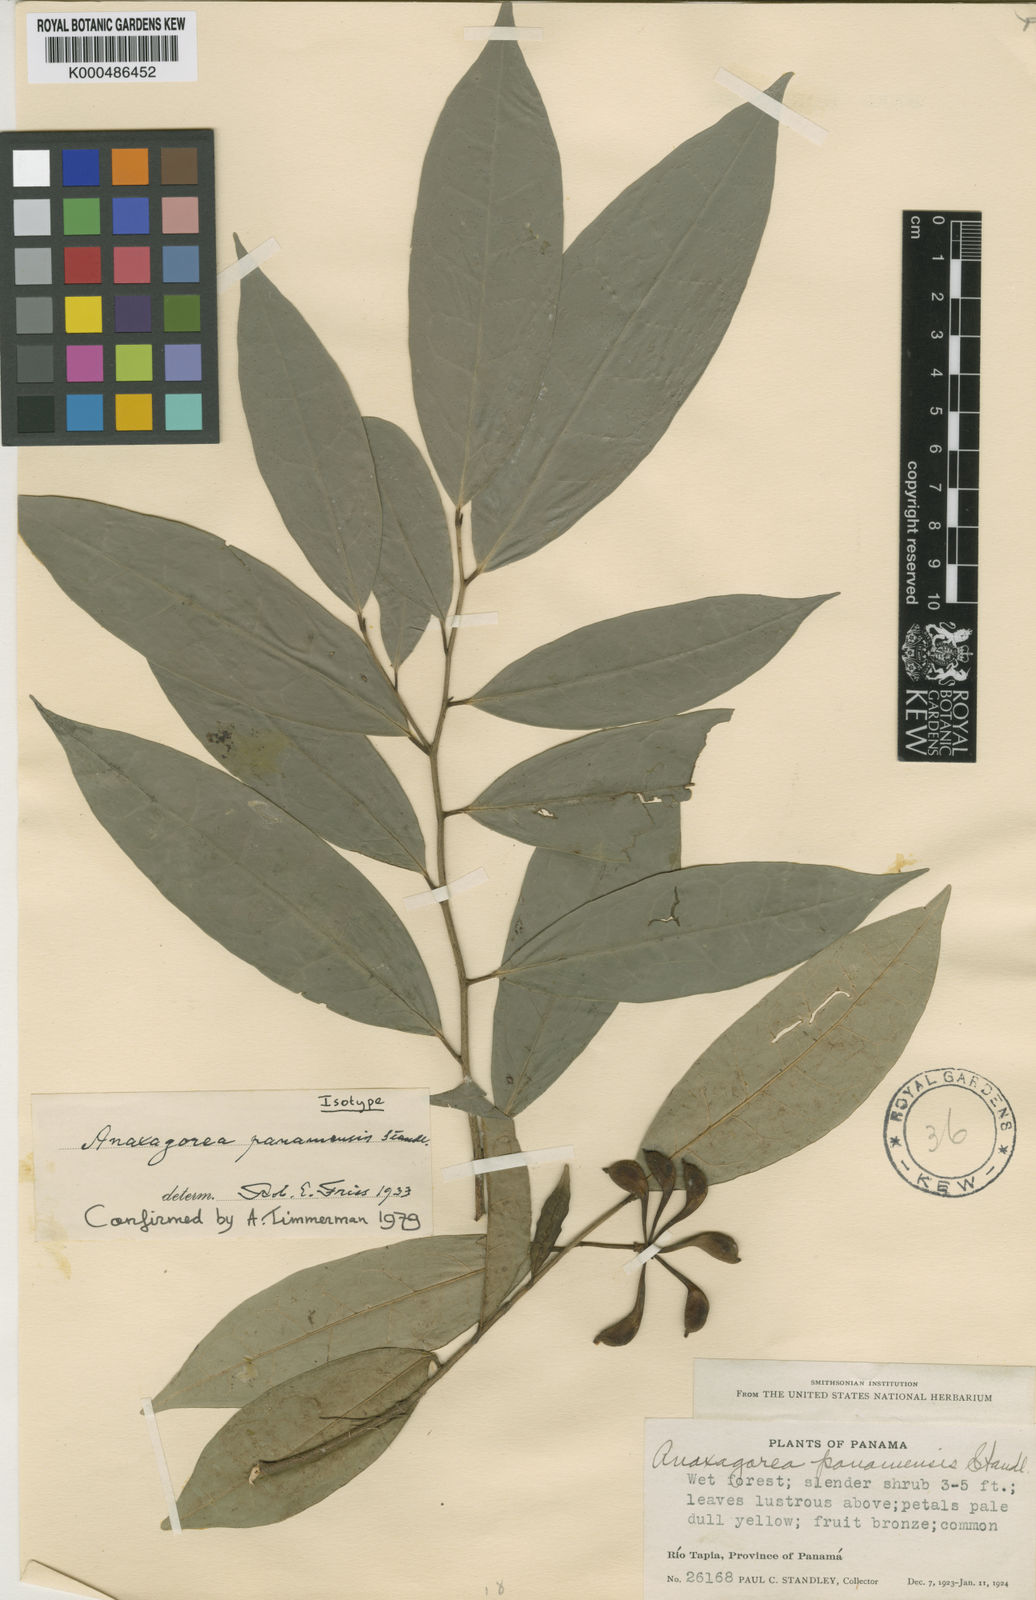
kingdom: Plantae
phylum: Tracheophyta
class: Magnoliopsida
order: Magnoliales
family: Annonaceae
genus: Anaxagorea
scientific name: Anaxagorea panamensis
